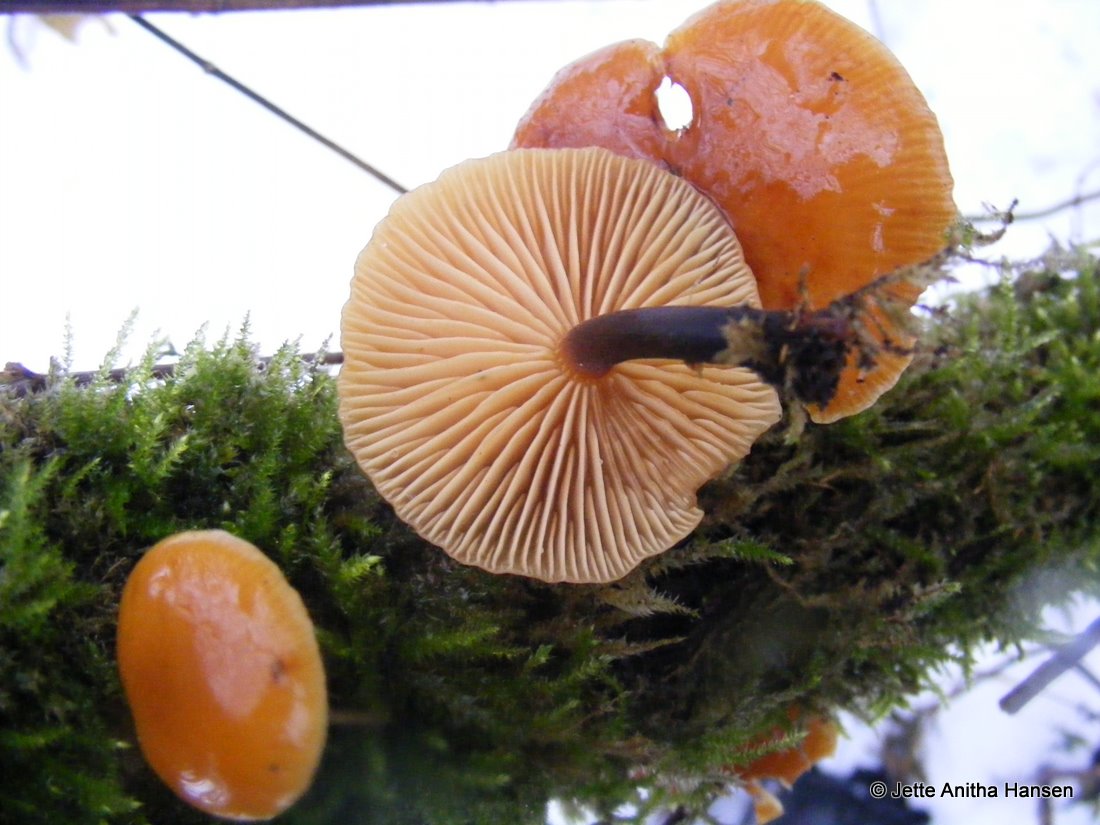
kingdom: Fungi
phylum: Basidiomycota
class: Agaricomycetes
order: Agaricales
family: Physalacriaceae
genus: Flammulina
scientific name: Flammulina elastica
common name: pile-fløjlsfod
